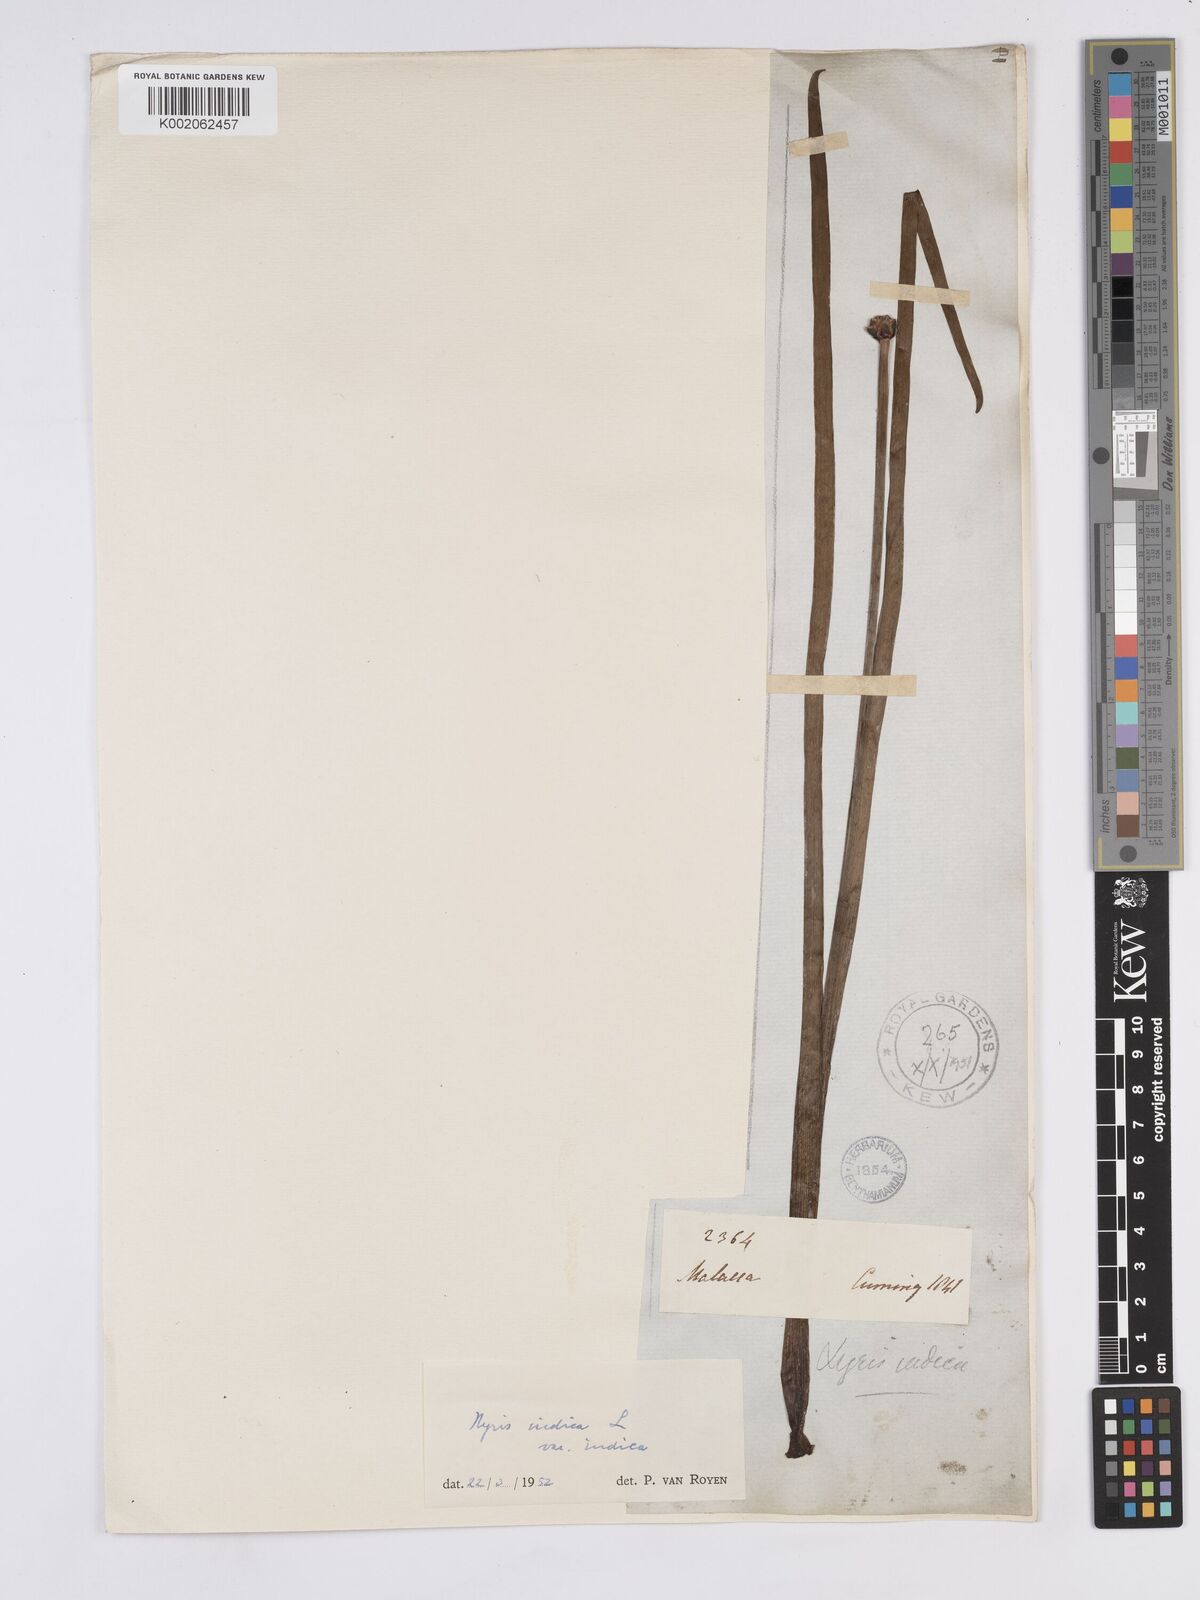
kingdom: Plantae
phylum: Tracheophyta
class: Liliopsida
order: Poales
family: Xyridaceae
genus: Xyris
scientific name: Xyris indica
